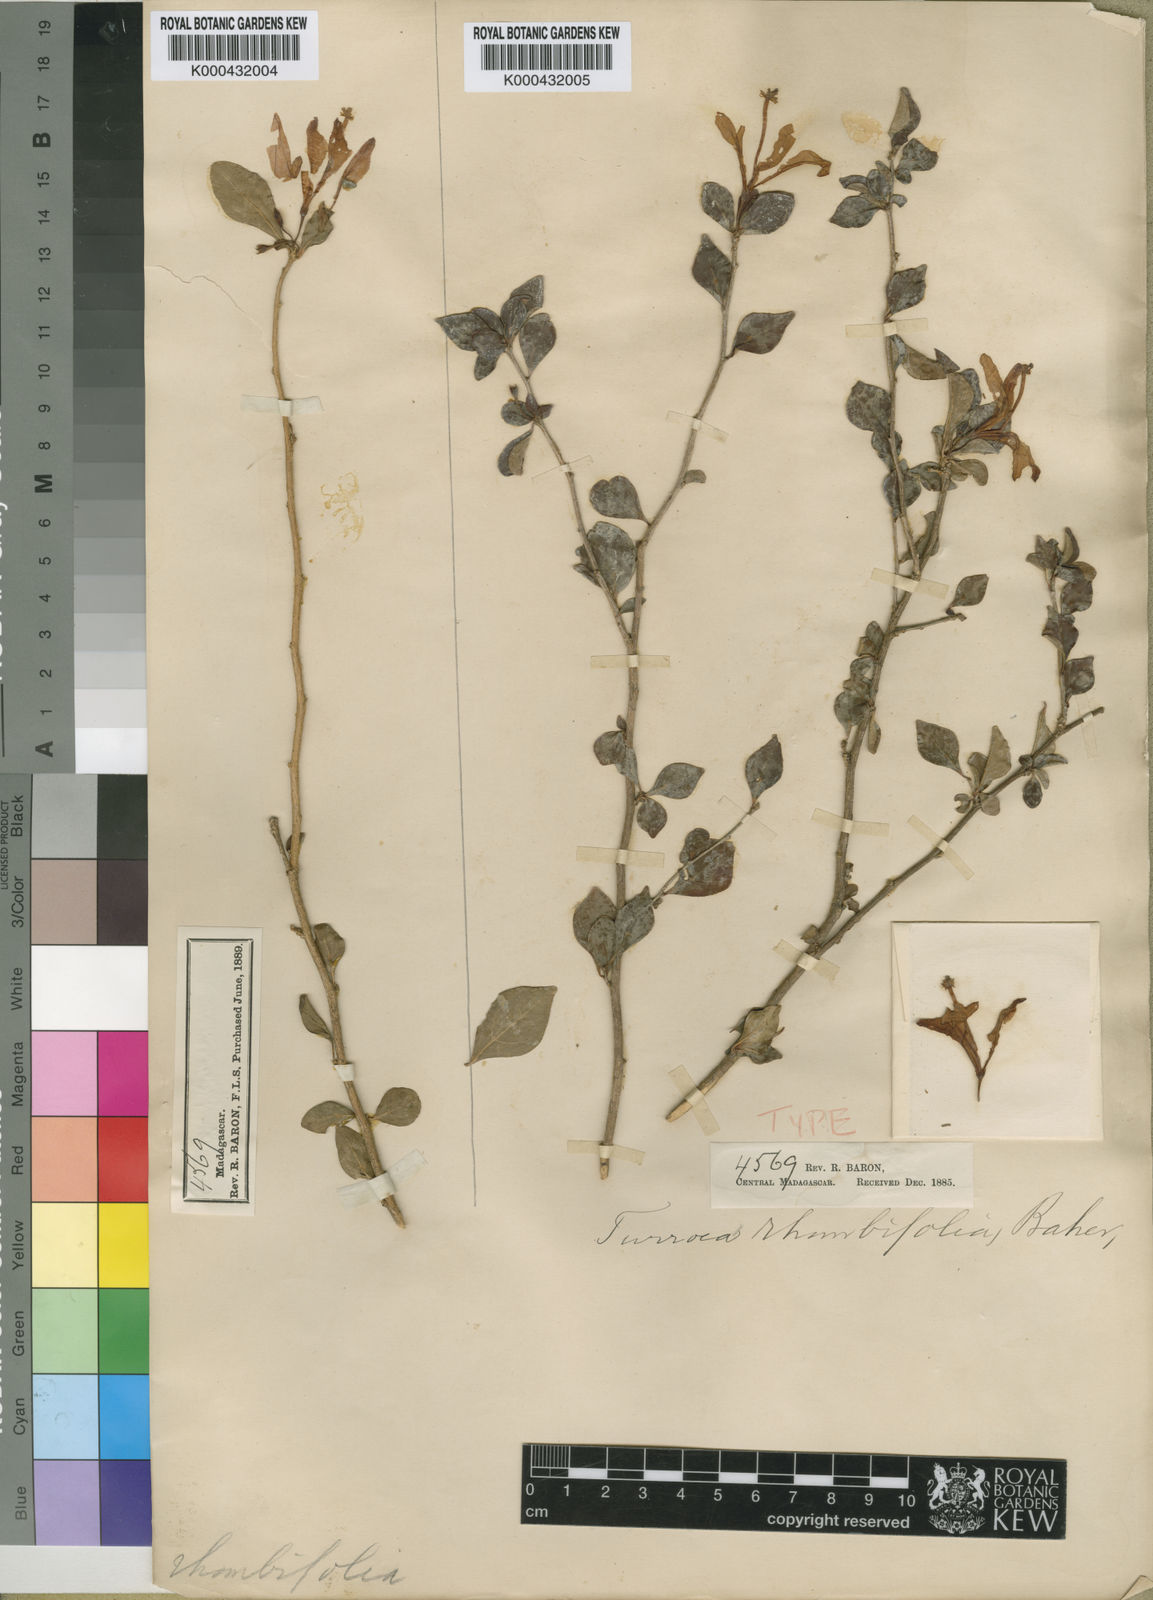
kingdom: Plantae
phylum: Tracheophyta
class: Magnoliopsida
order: Sapindales
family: Meliaceae
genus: Turraea
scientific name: Turraea rhombifolia
